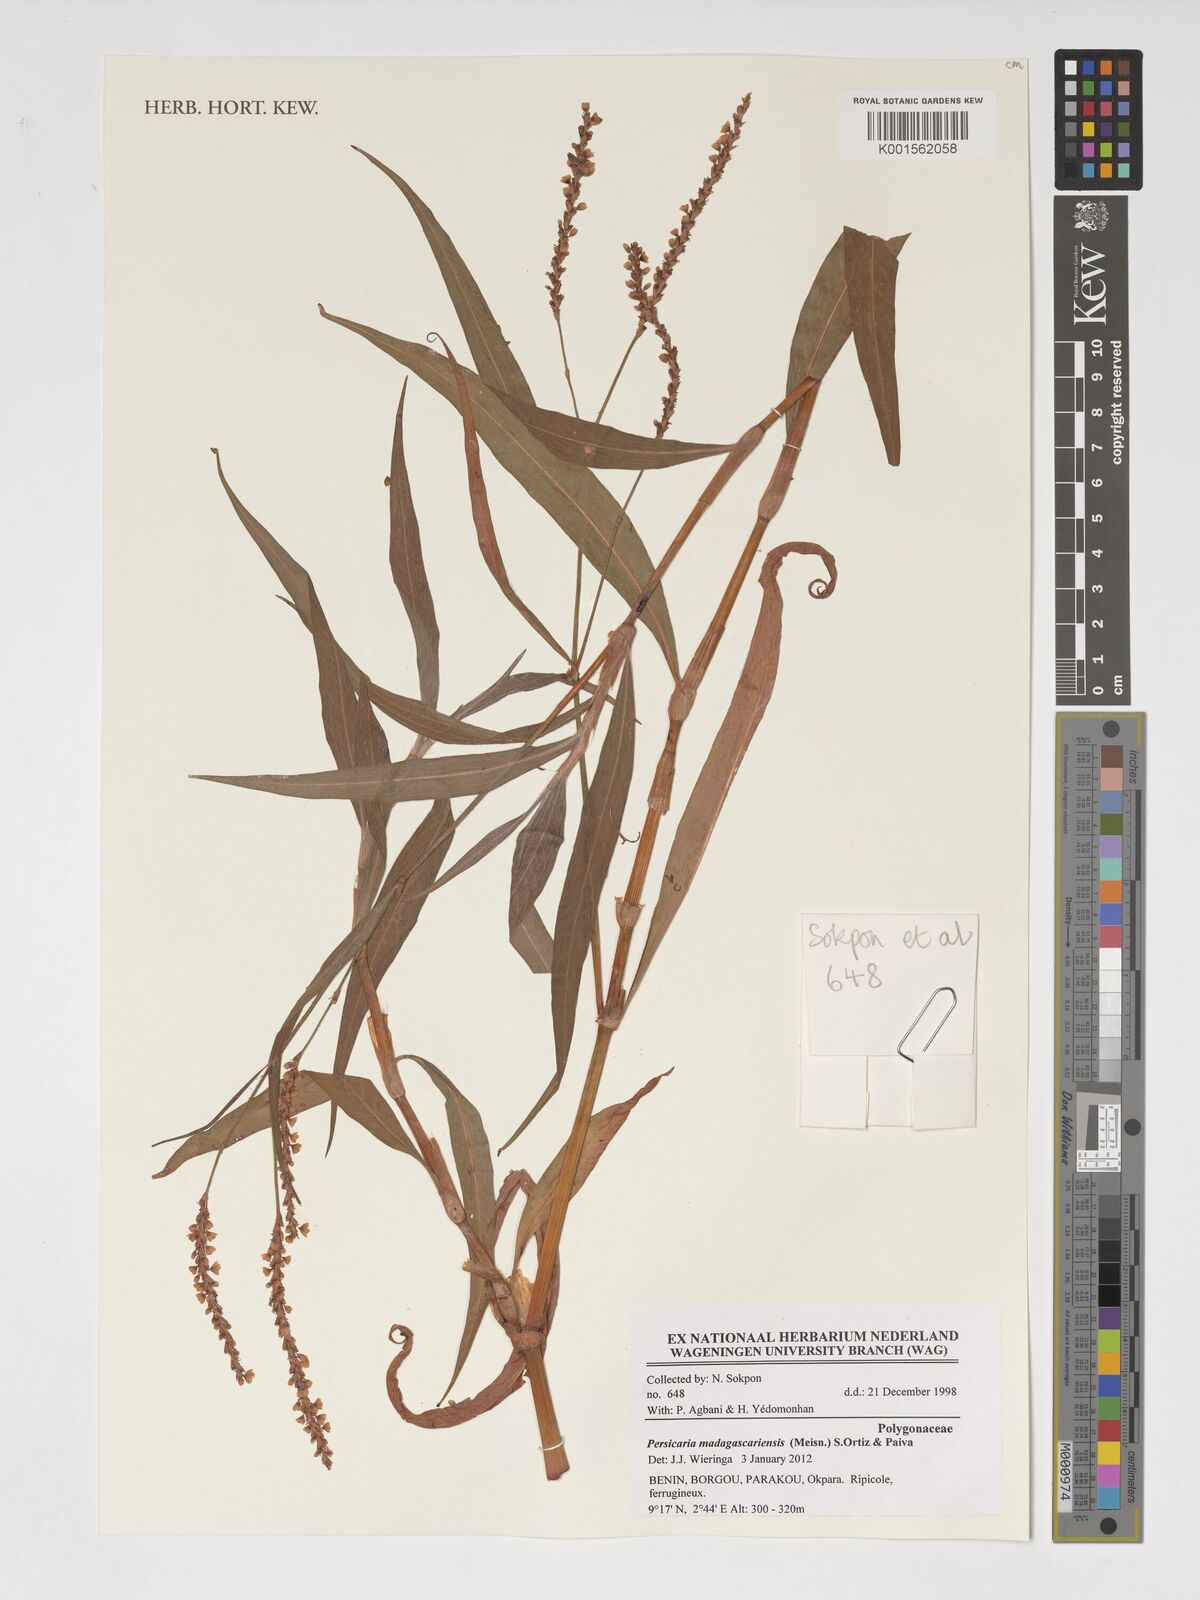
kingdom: Plantae
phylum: Tracheophyta
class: Magnoliopsida
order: Caryophyllales
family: Polygonaceae
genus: Persicaria
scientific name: Persicaria madagascariensis
